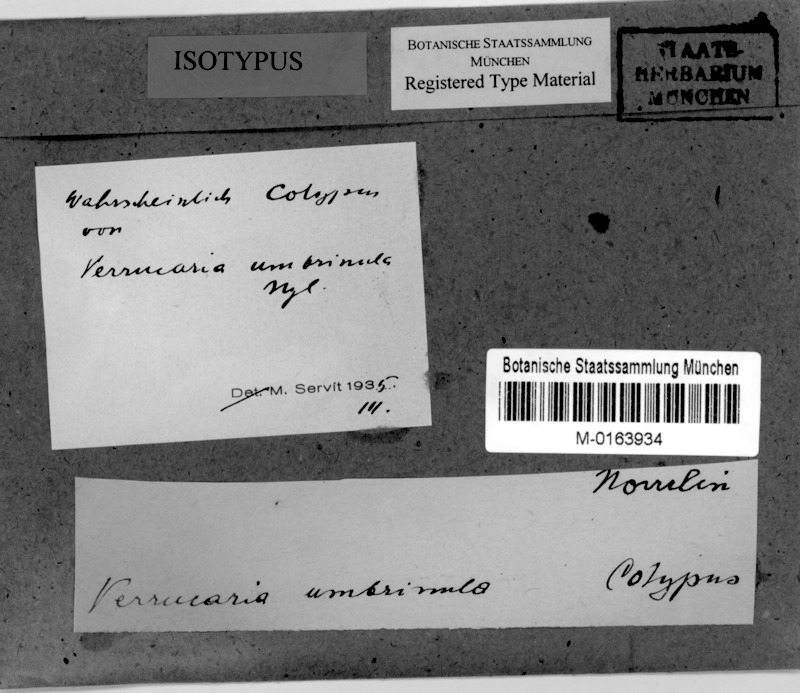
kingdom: Fungi
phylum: Ascomycota
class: Eurotiomycetes
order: Verrucariales
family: Verrucariaceae
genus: Verrucaria
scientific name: Verrucaria umbrinula
